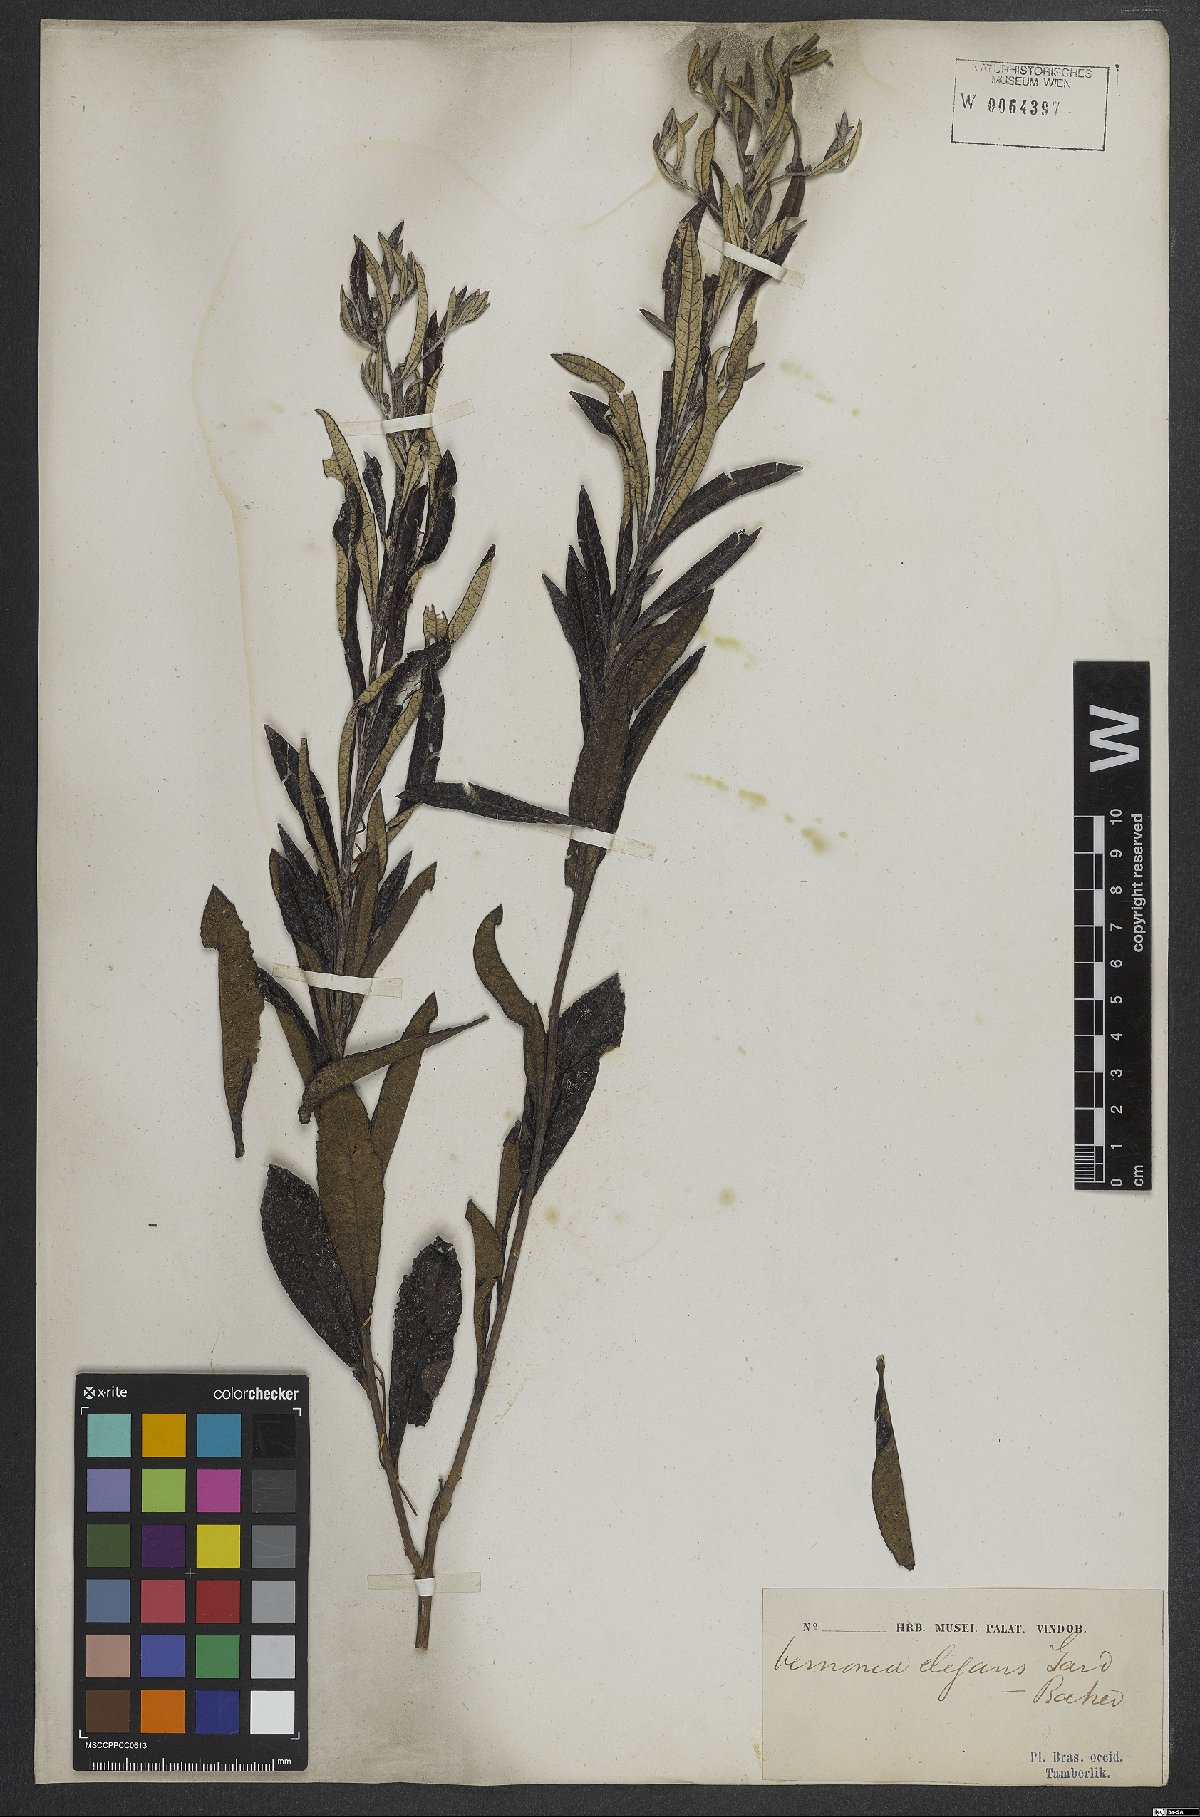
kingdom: Plantae
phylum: Tracheophyta
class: Magnoliopsida
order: Asterales
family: Asteraceae
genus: Lessingianthus
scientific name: Lessingianthus elegans
